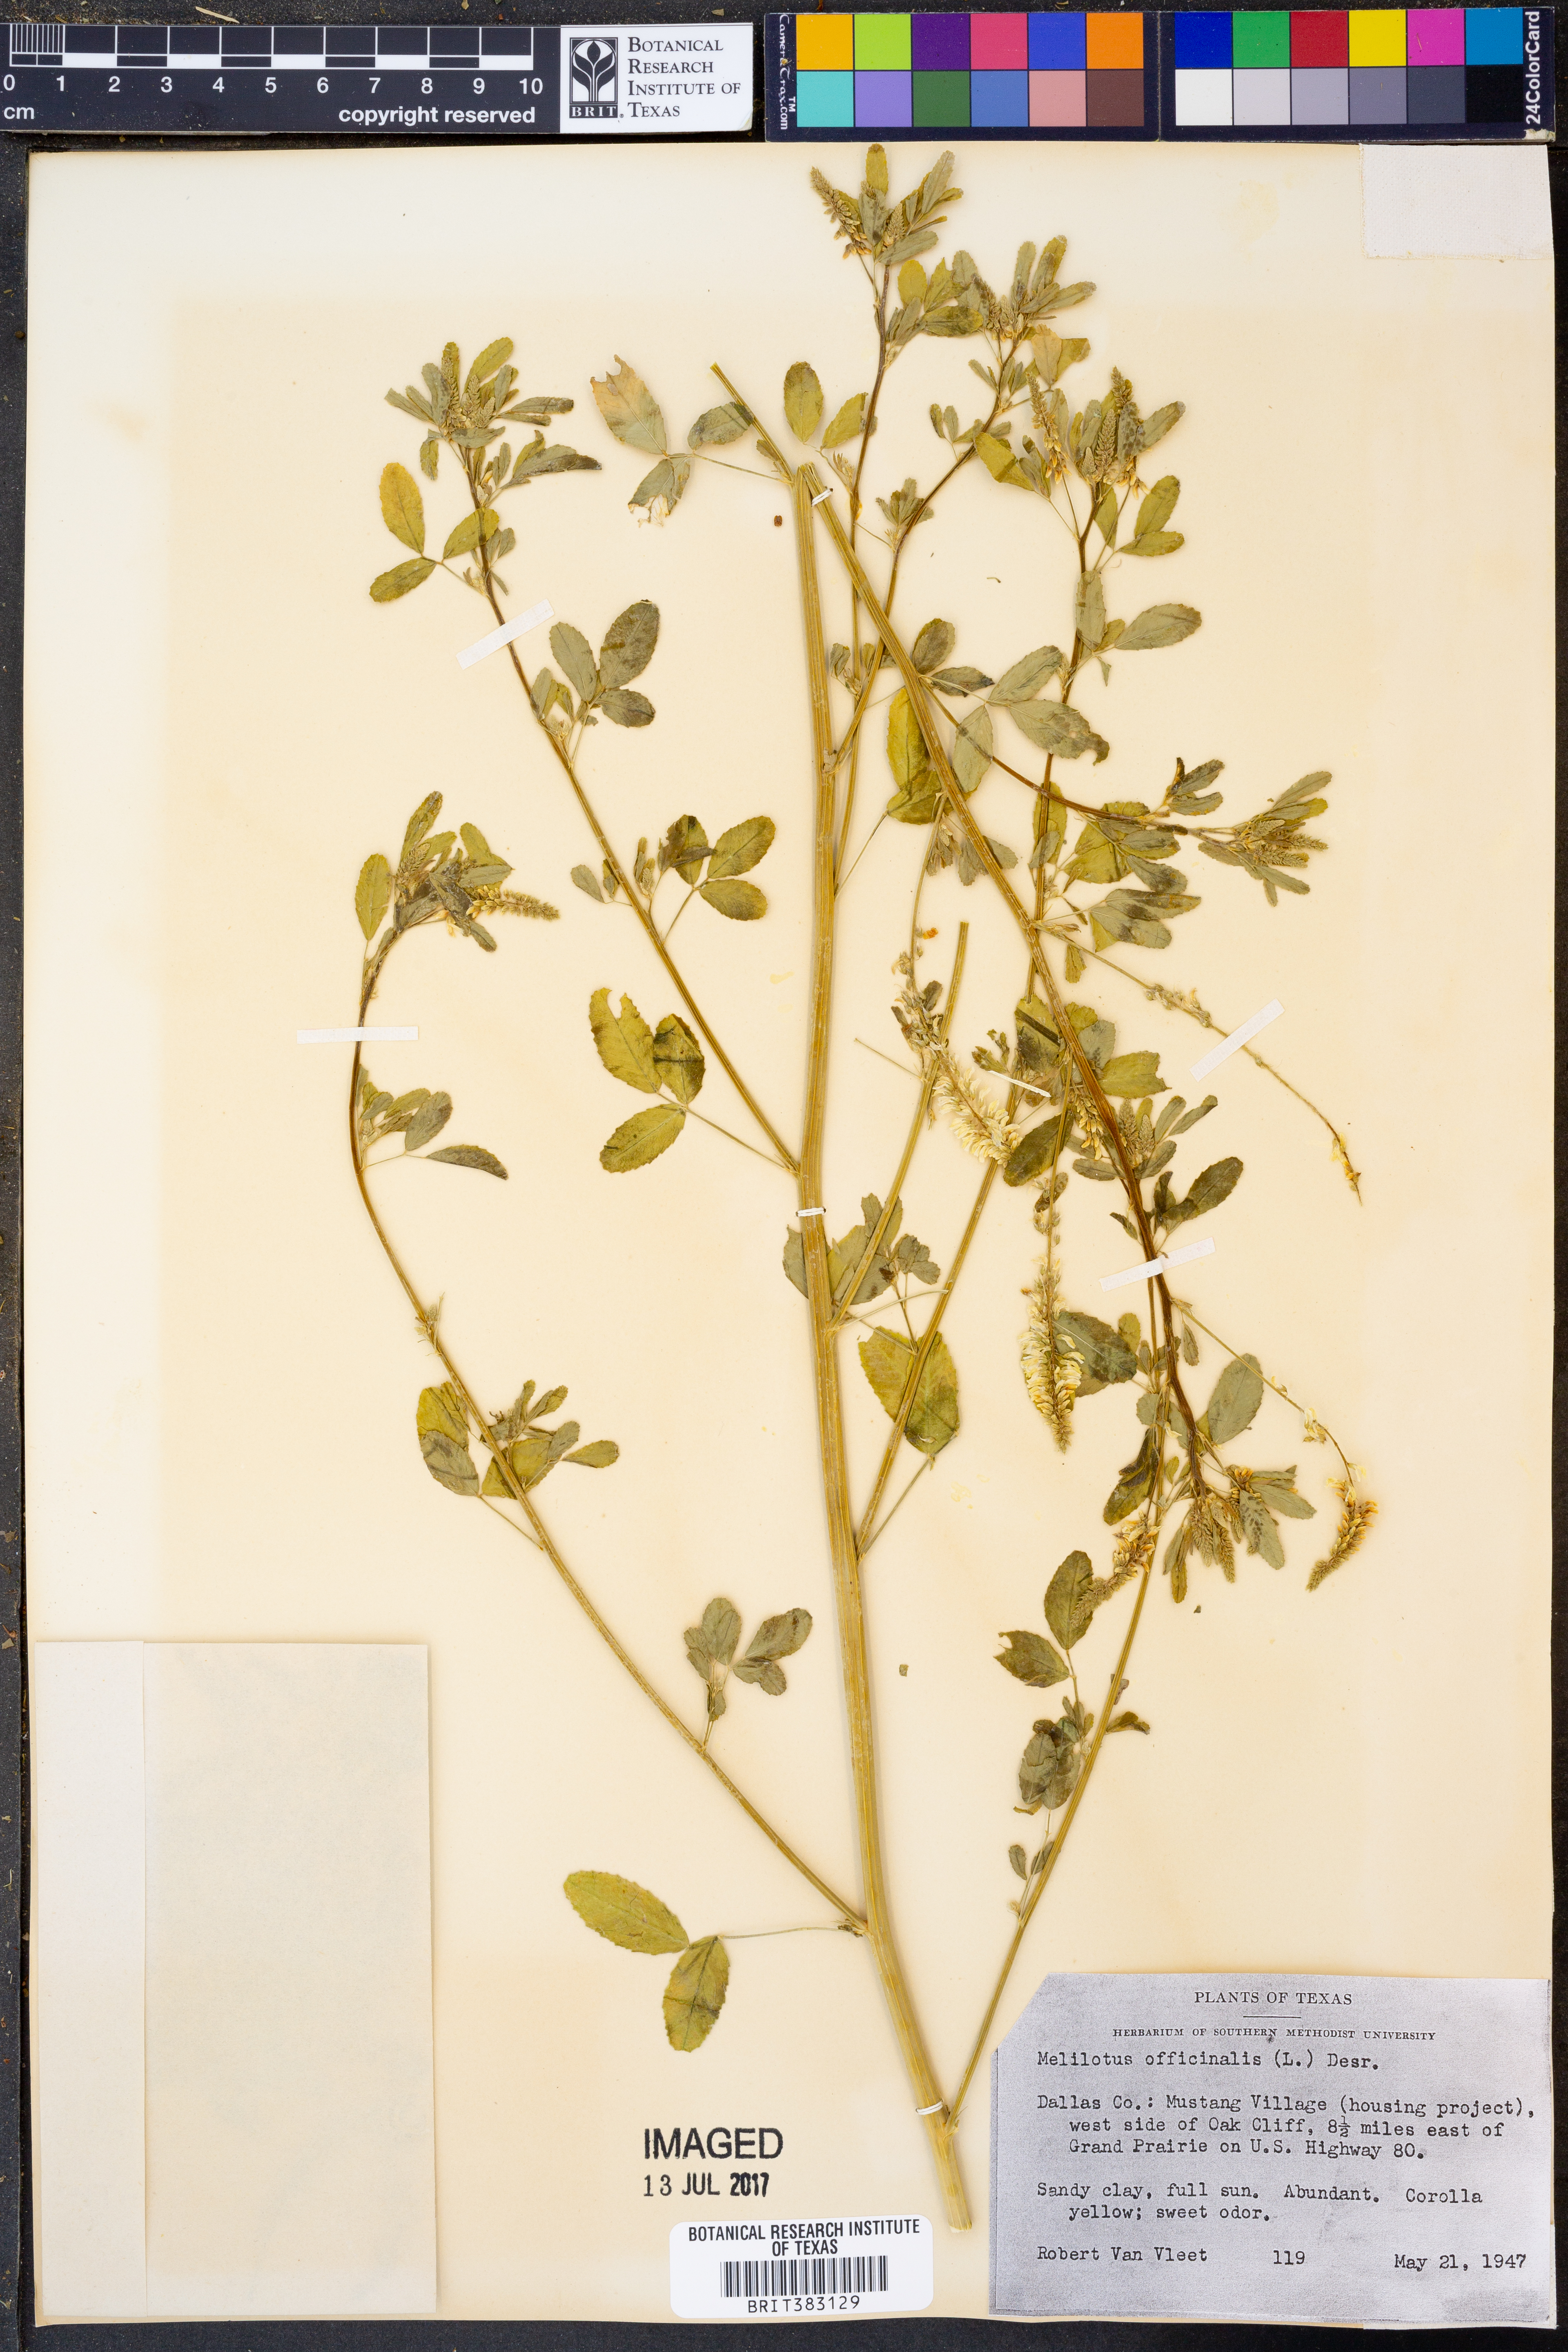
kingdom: Plantae
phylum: Tracheophyta
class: Magnoliopsida
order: Fabales
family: Fabaceae
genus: Melilotus
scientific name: Melilotus officinalis
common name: Sweetclover
